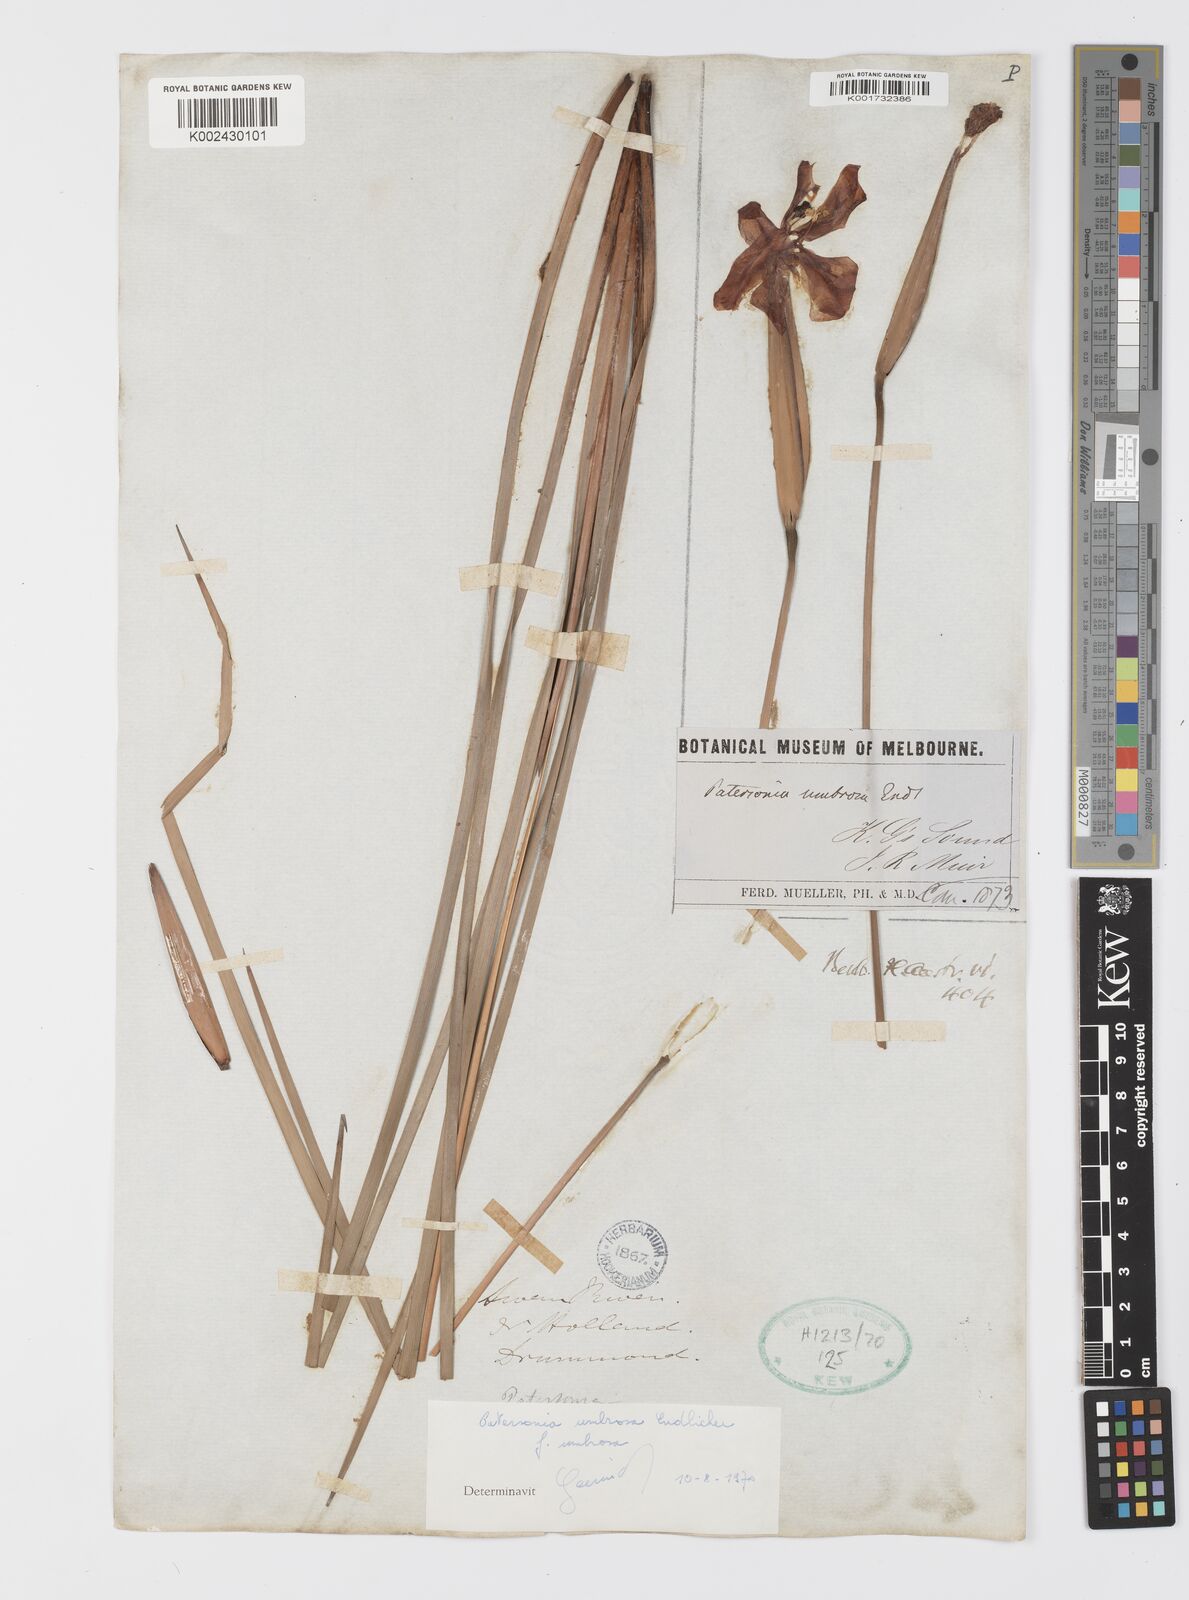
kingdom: Plantae
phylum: Tracheophyta
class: Liliopsida
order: Asparagales
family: Iridaceae
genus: Patersonia
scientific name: Patersonia umbrosa
